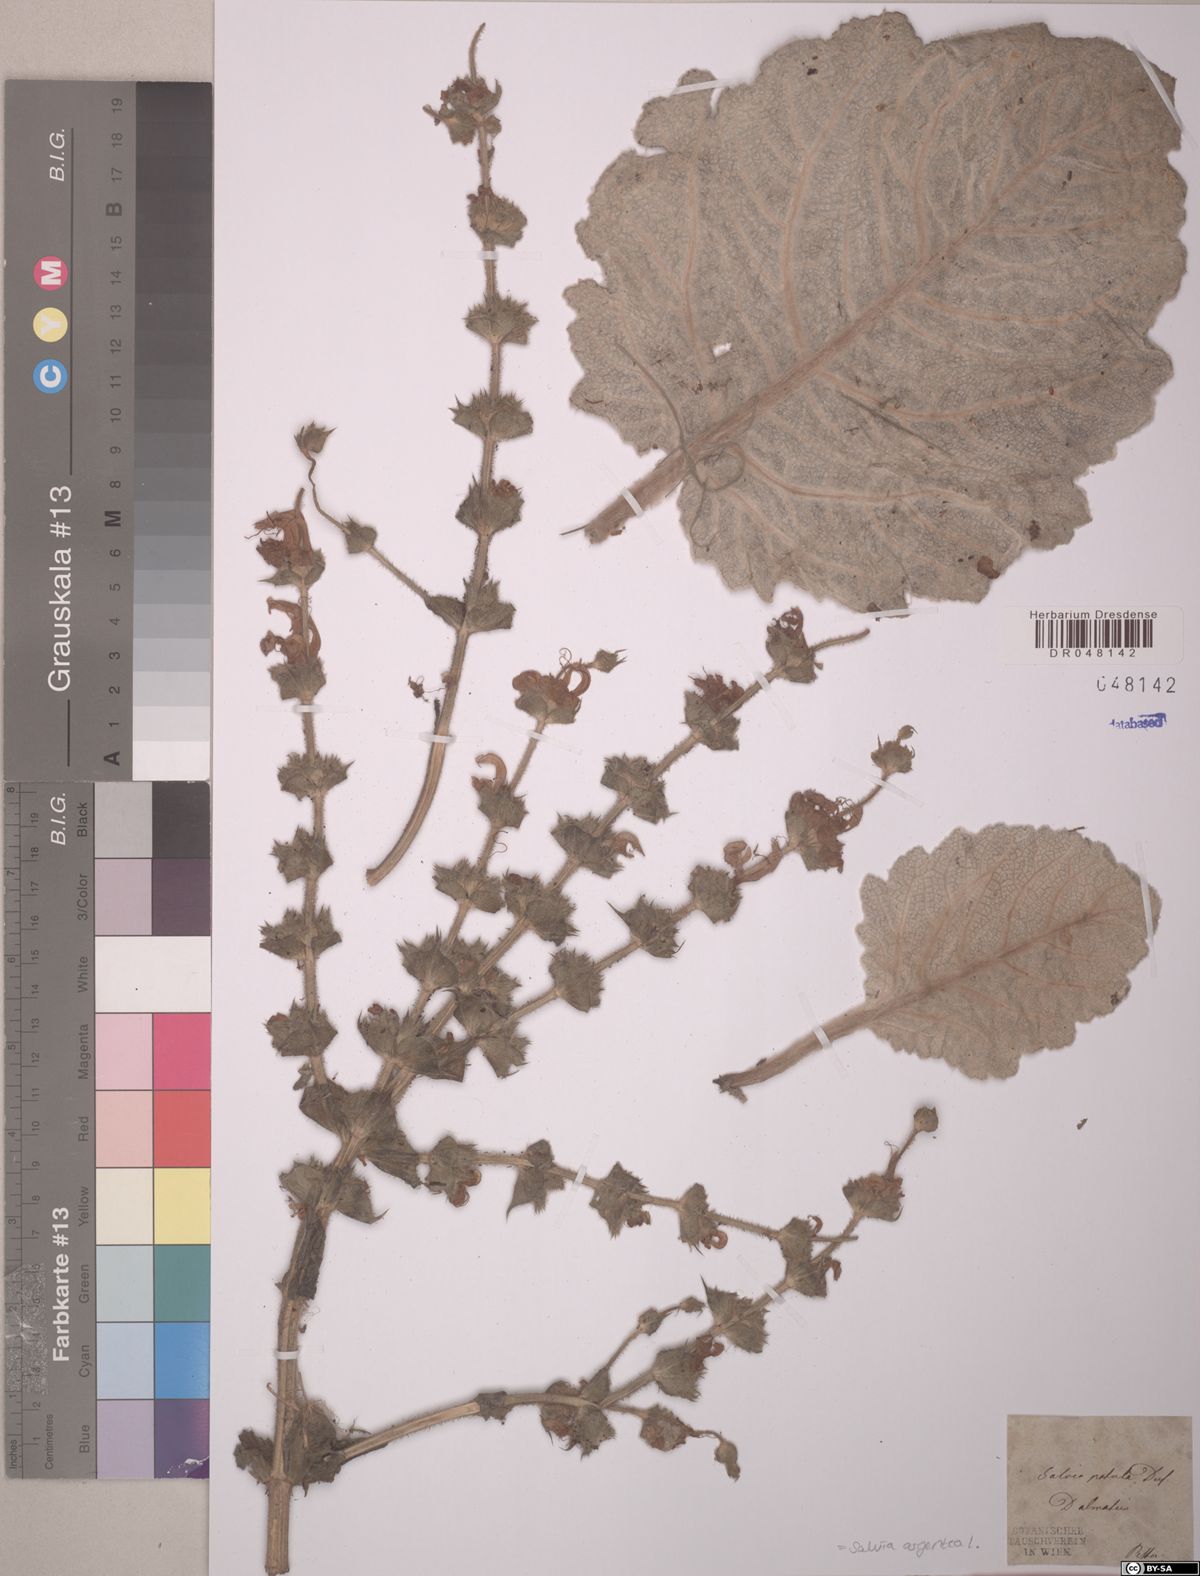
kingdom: Plantae
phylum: Tracheophyta
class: Magnoliopsida
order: Lamiales
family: Lamiaceae
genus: Salvia
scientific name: Salvia argentea
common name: Silver sage
